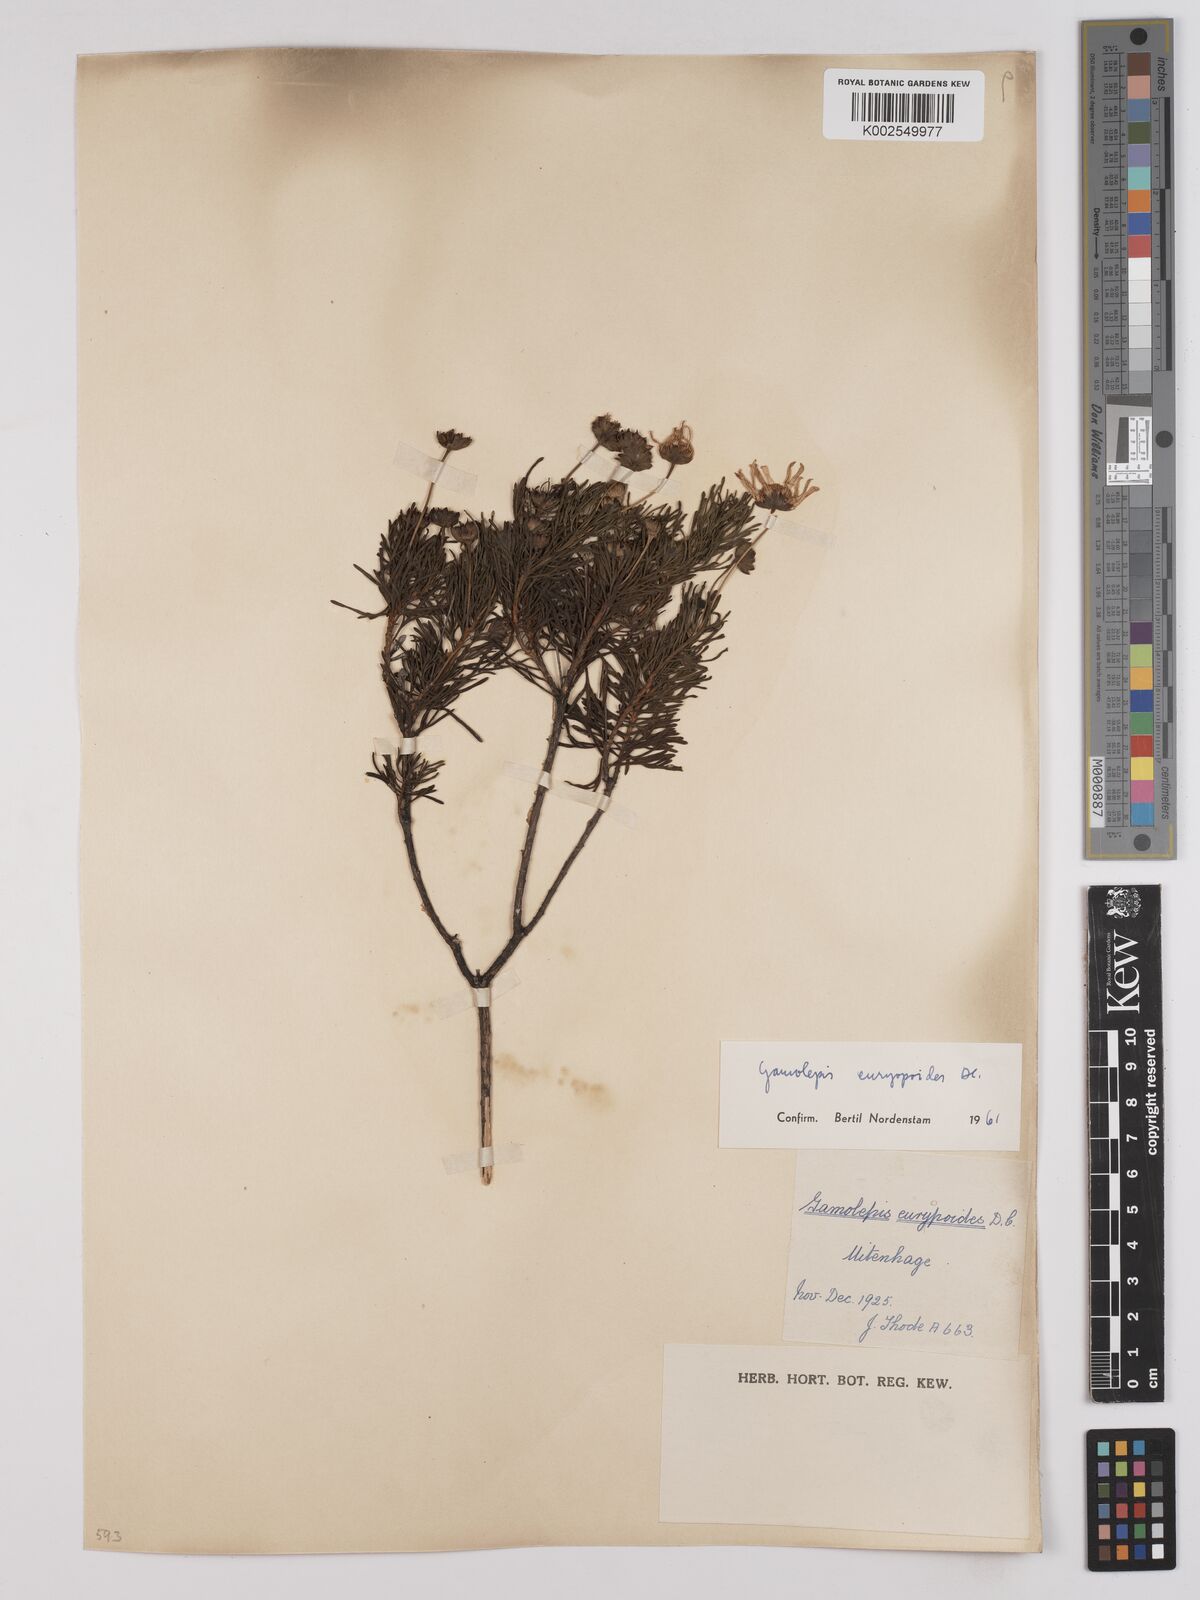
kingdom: Plantae
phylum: Tracheophyta
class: Magnoliopsida
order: Asterales
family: Asteraceae
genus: Euryops
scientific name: Euryops euryopoides
